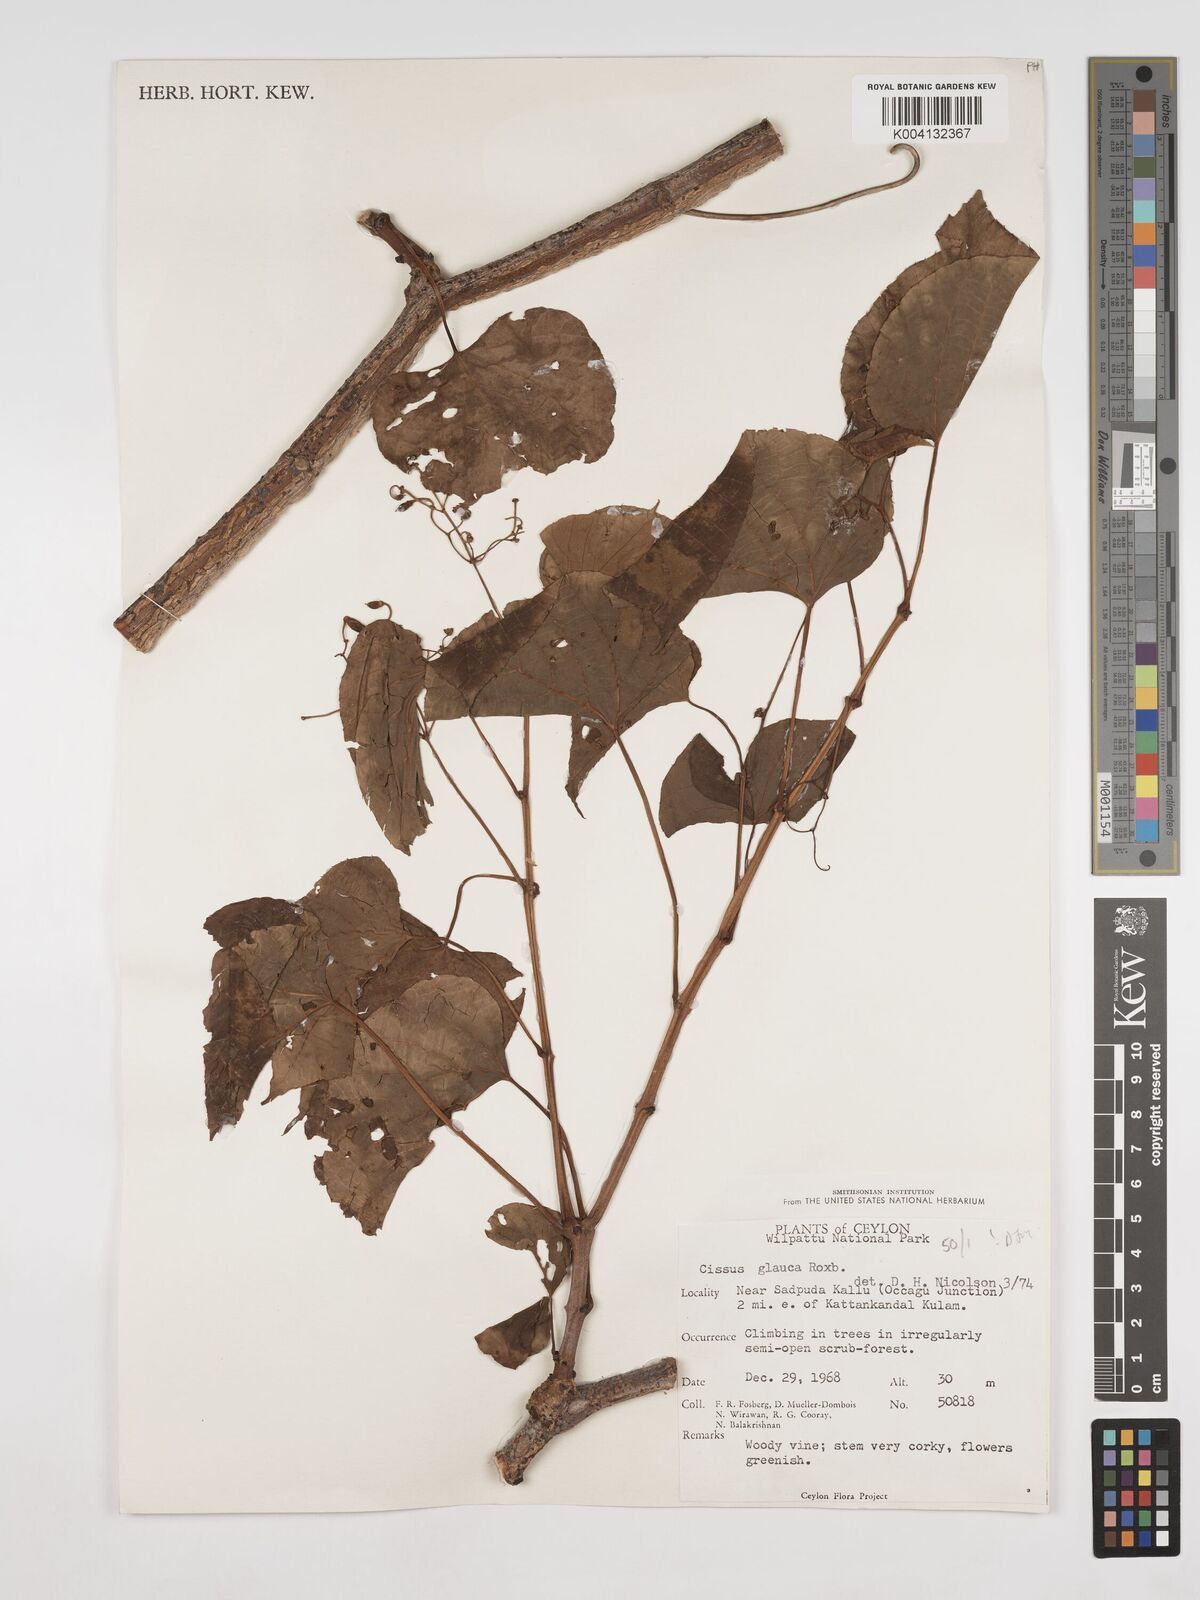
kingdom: Plantae
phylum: Tracheophyta
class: Magnoliopsida
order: Vitales
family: Vitaceae
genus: Cissus
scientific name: Cissus
